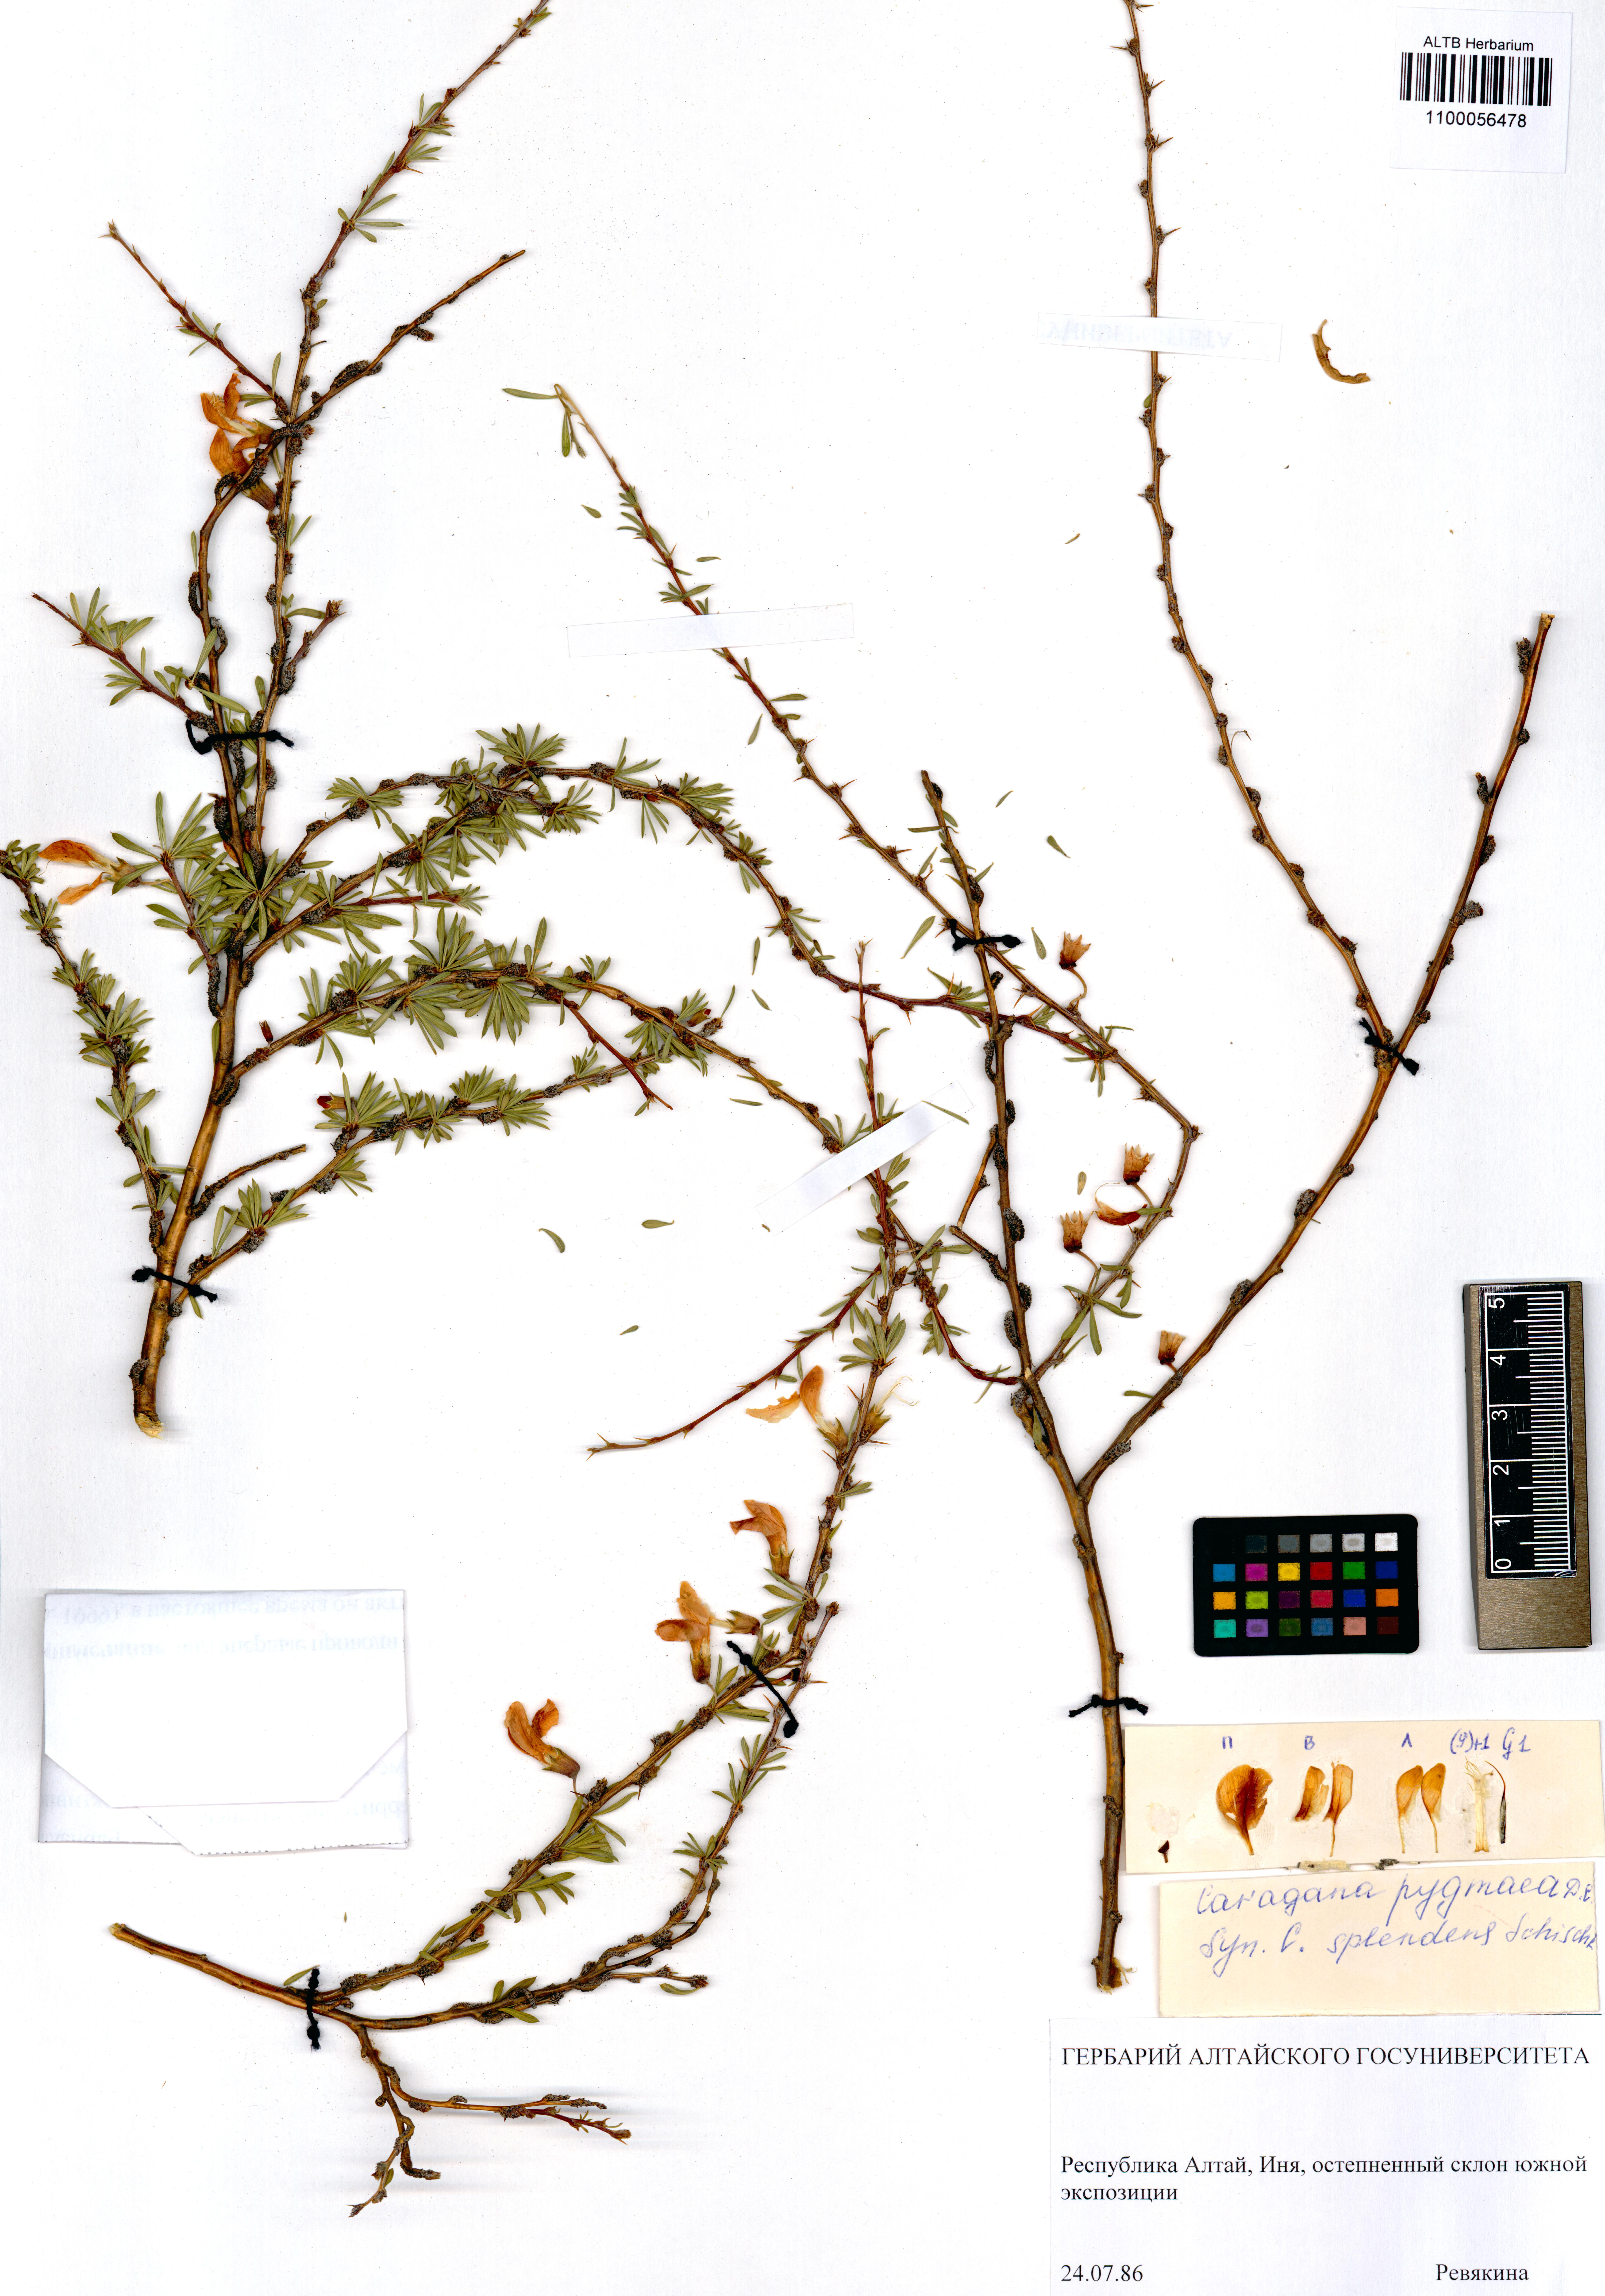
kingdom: Plantae
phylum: Tracheophyta
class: Magnoliopsida
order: Fabales
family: Fabaceae
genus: Caragana
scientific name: Caragana pygmaea
